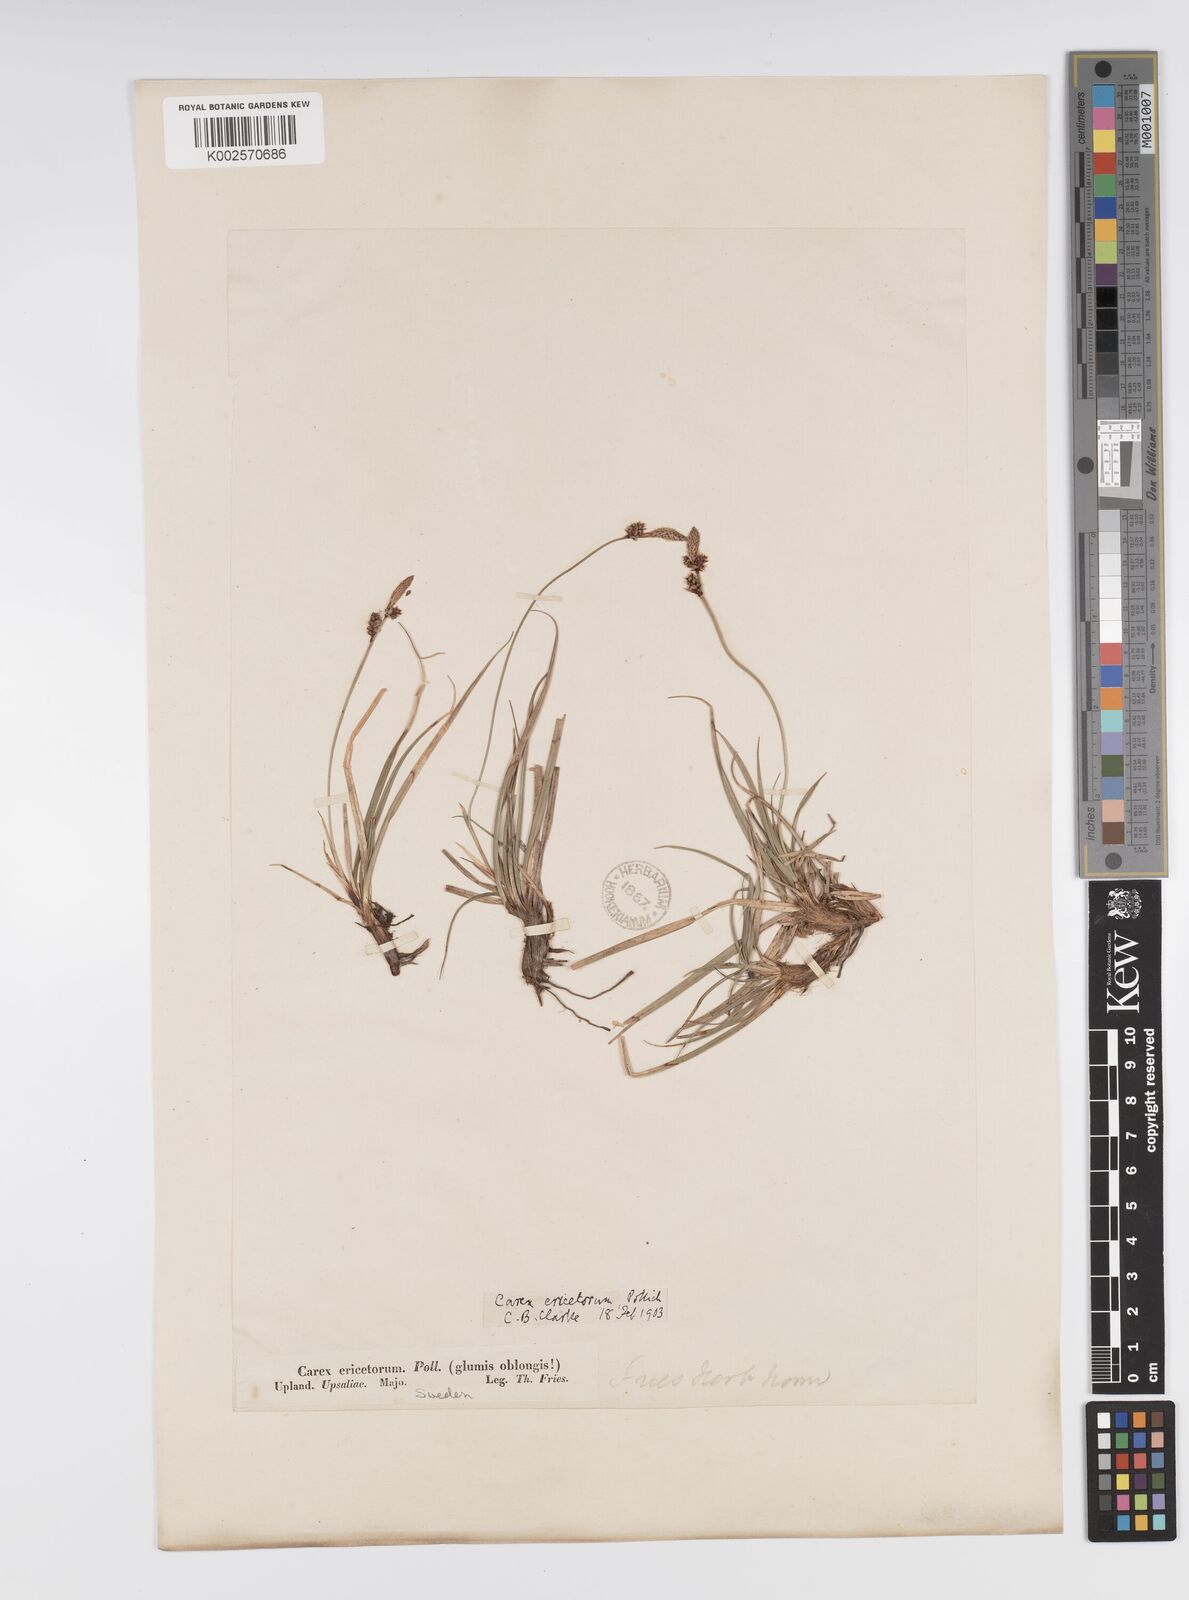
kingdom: Plantae
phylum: Tracheophyta
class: Liliopsida
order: Poales
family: Cyperaceae
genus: Carex
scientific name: Carex ericetorum
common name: Rare spring-sedge
